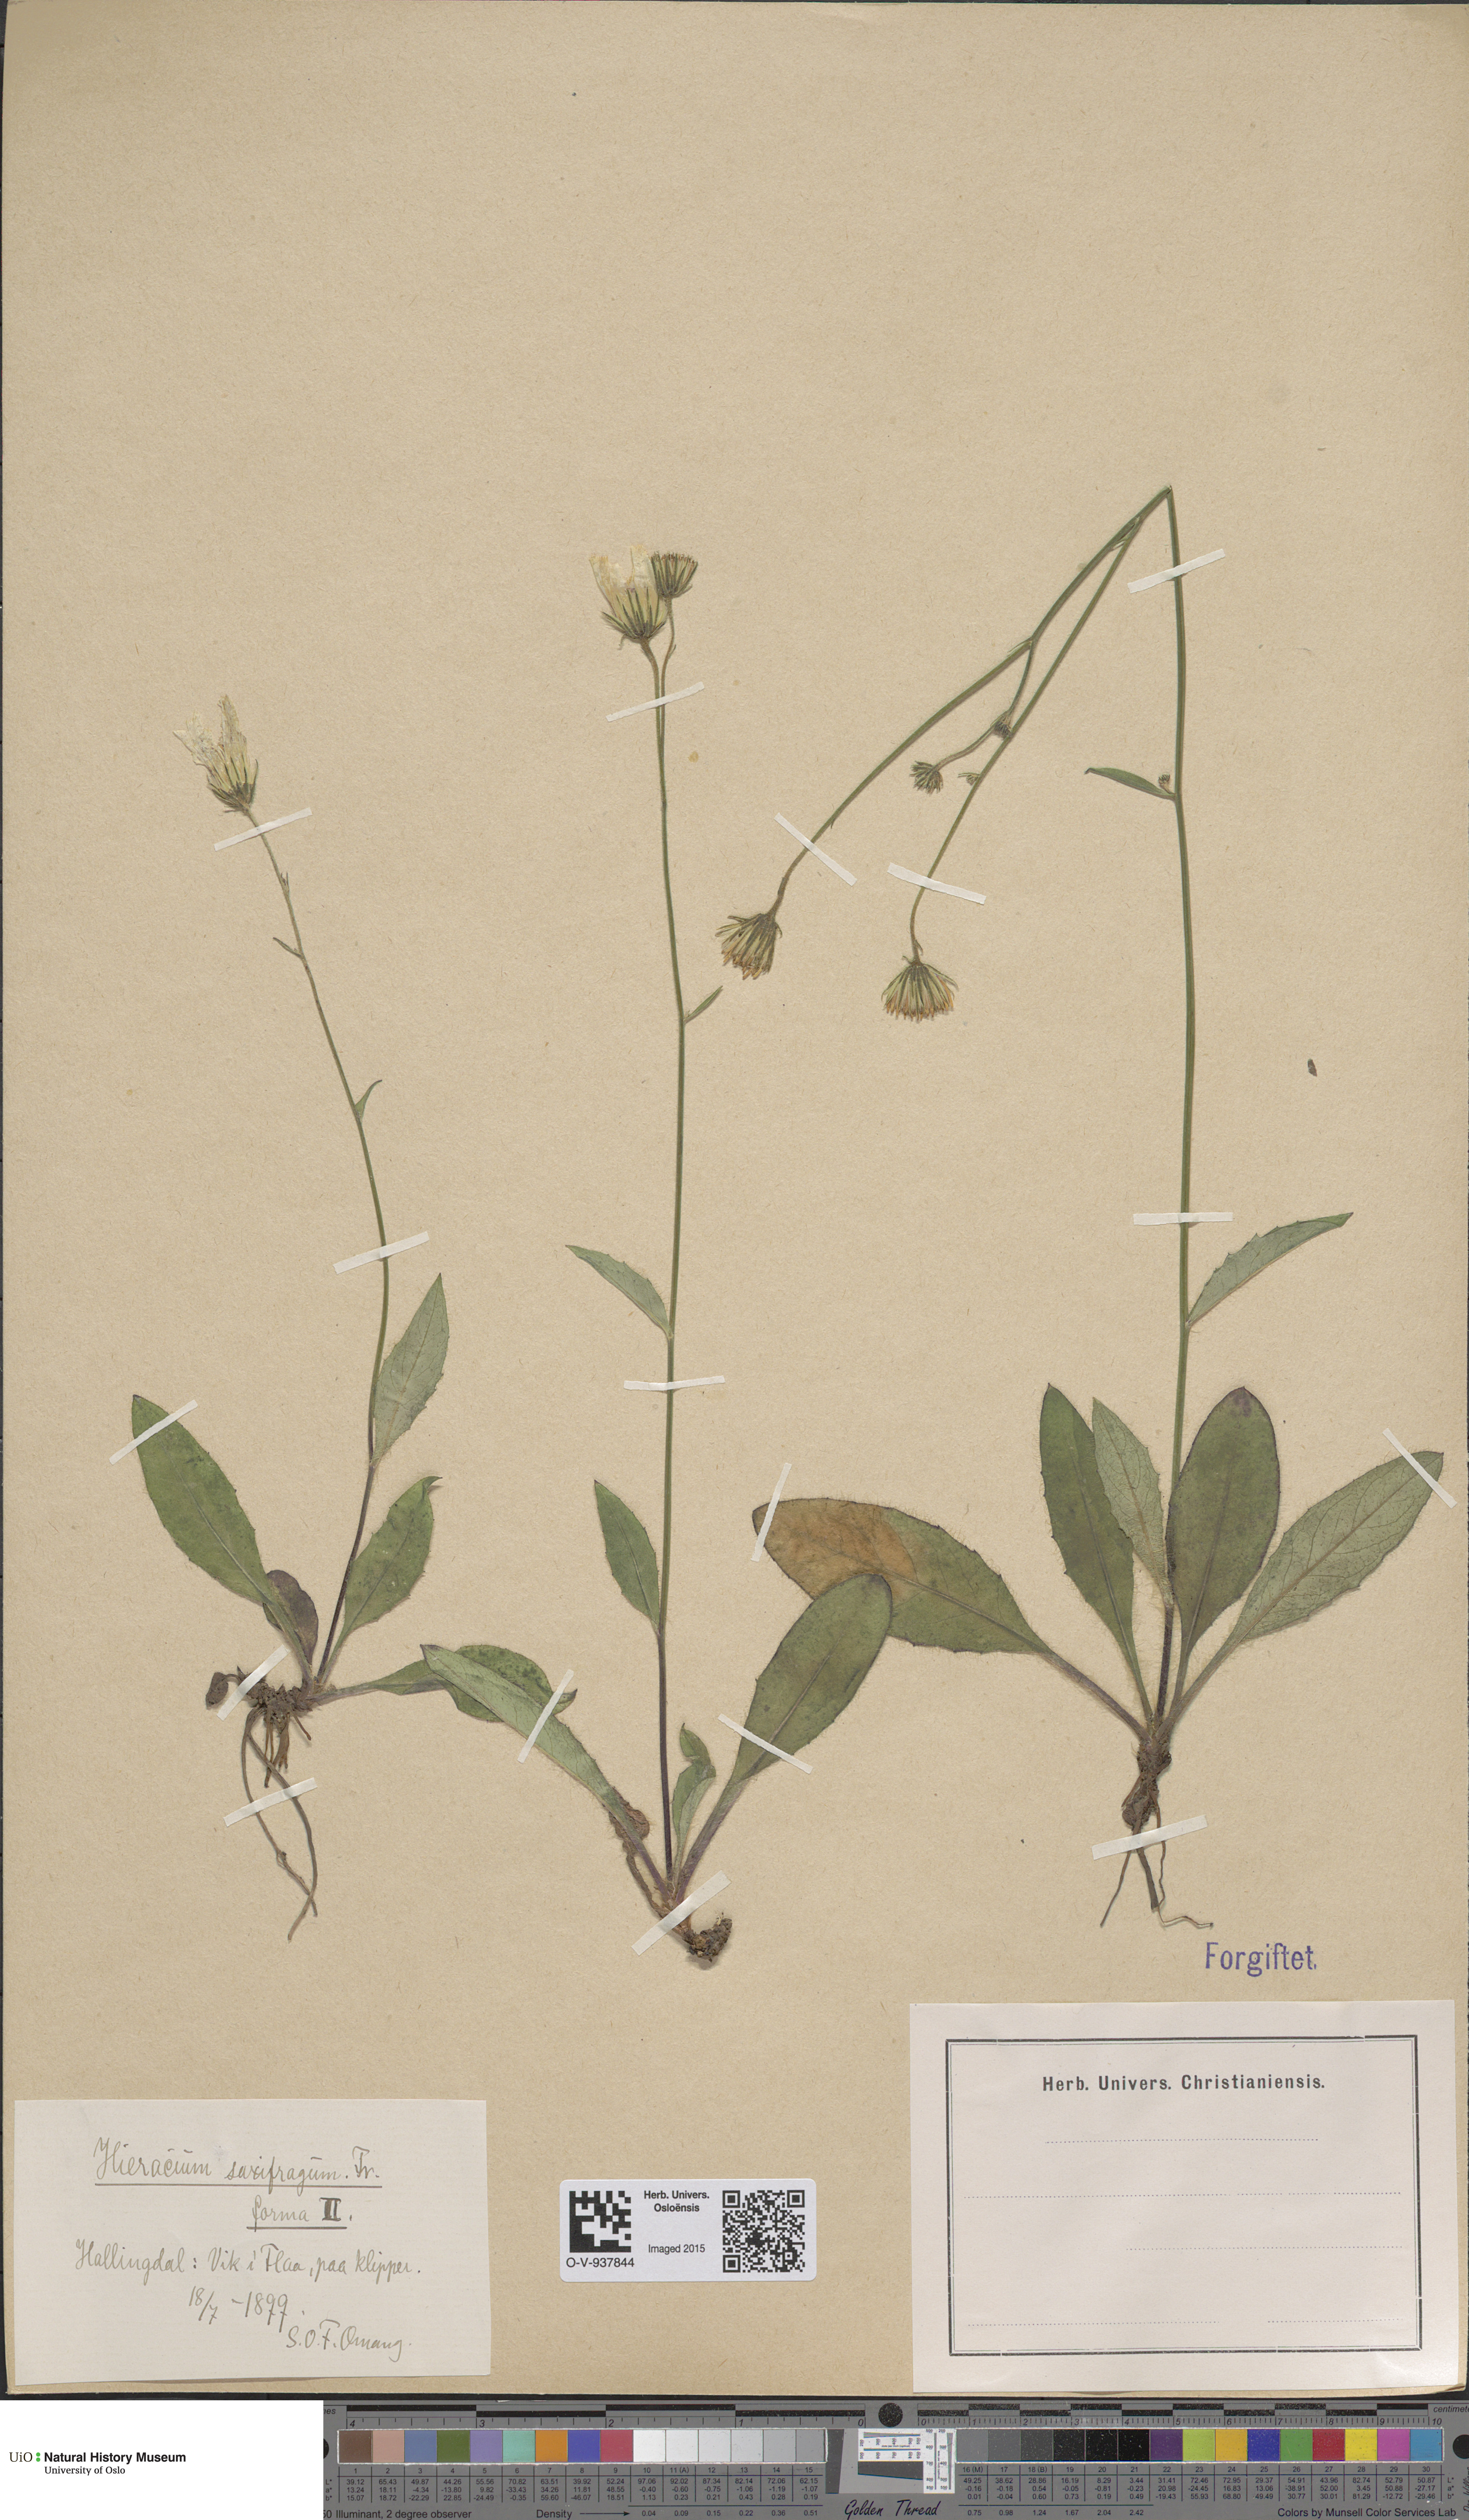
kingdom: Plantae
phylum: Tracheophyta
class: Magnoliopsida
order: Asterales
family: Asteraceae
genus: Hieracium
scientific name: Hieracium saxifragum
